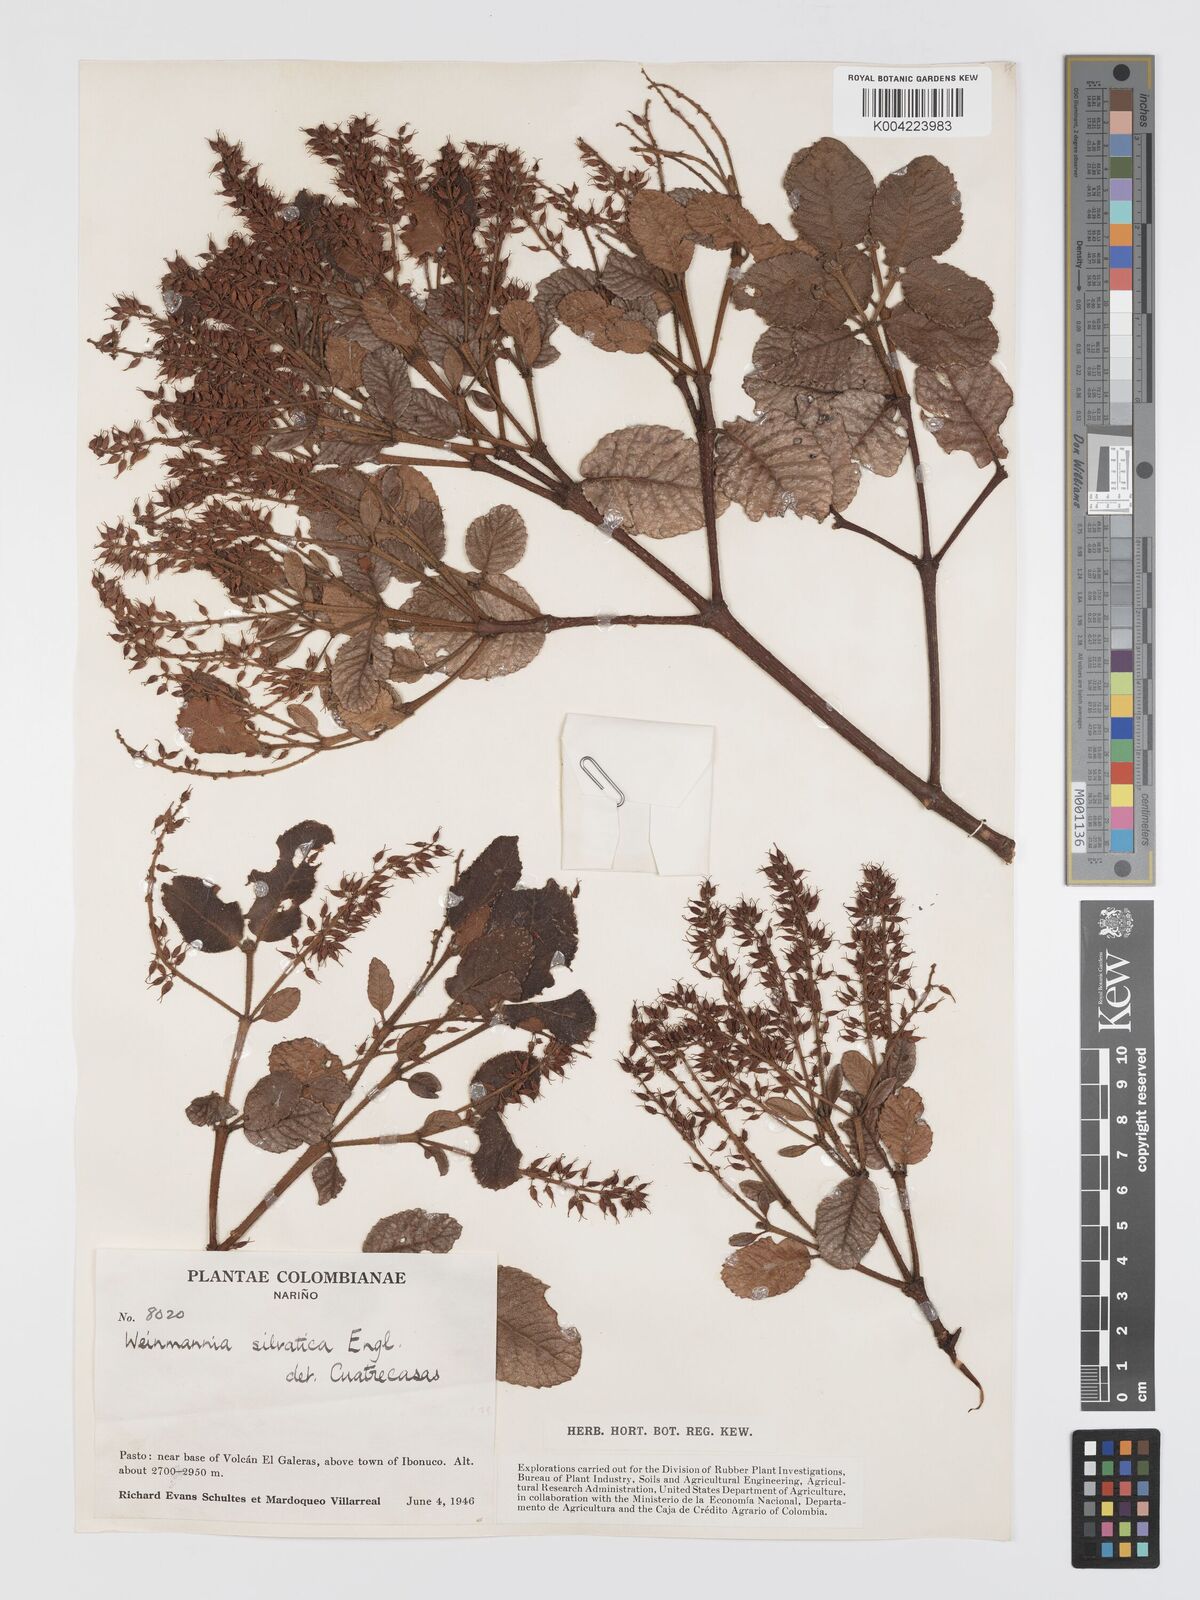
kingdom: Plantae
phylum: Tracheophyta
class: Magnoliopsida
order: Oxalidales
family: Cunoniaceae
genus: Weinmannia
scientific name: Weinmannia auriculata
